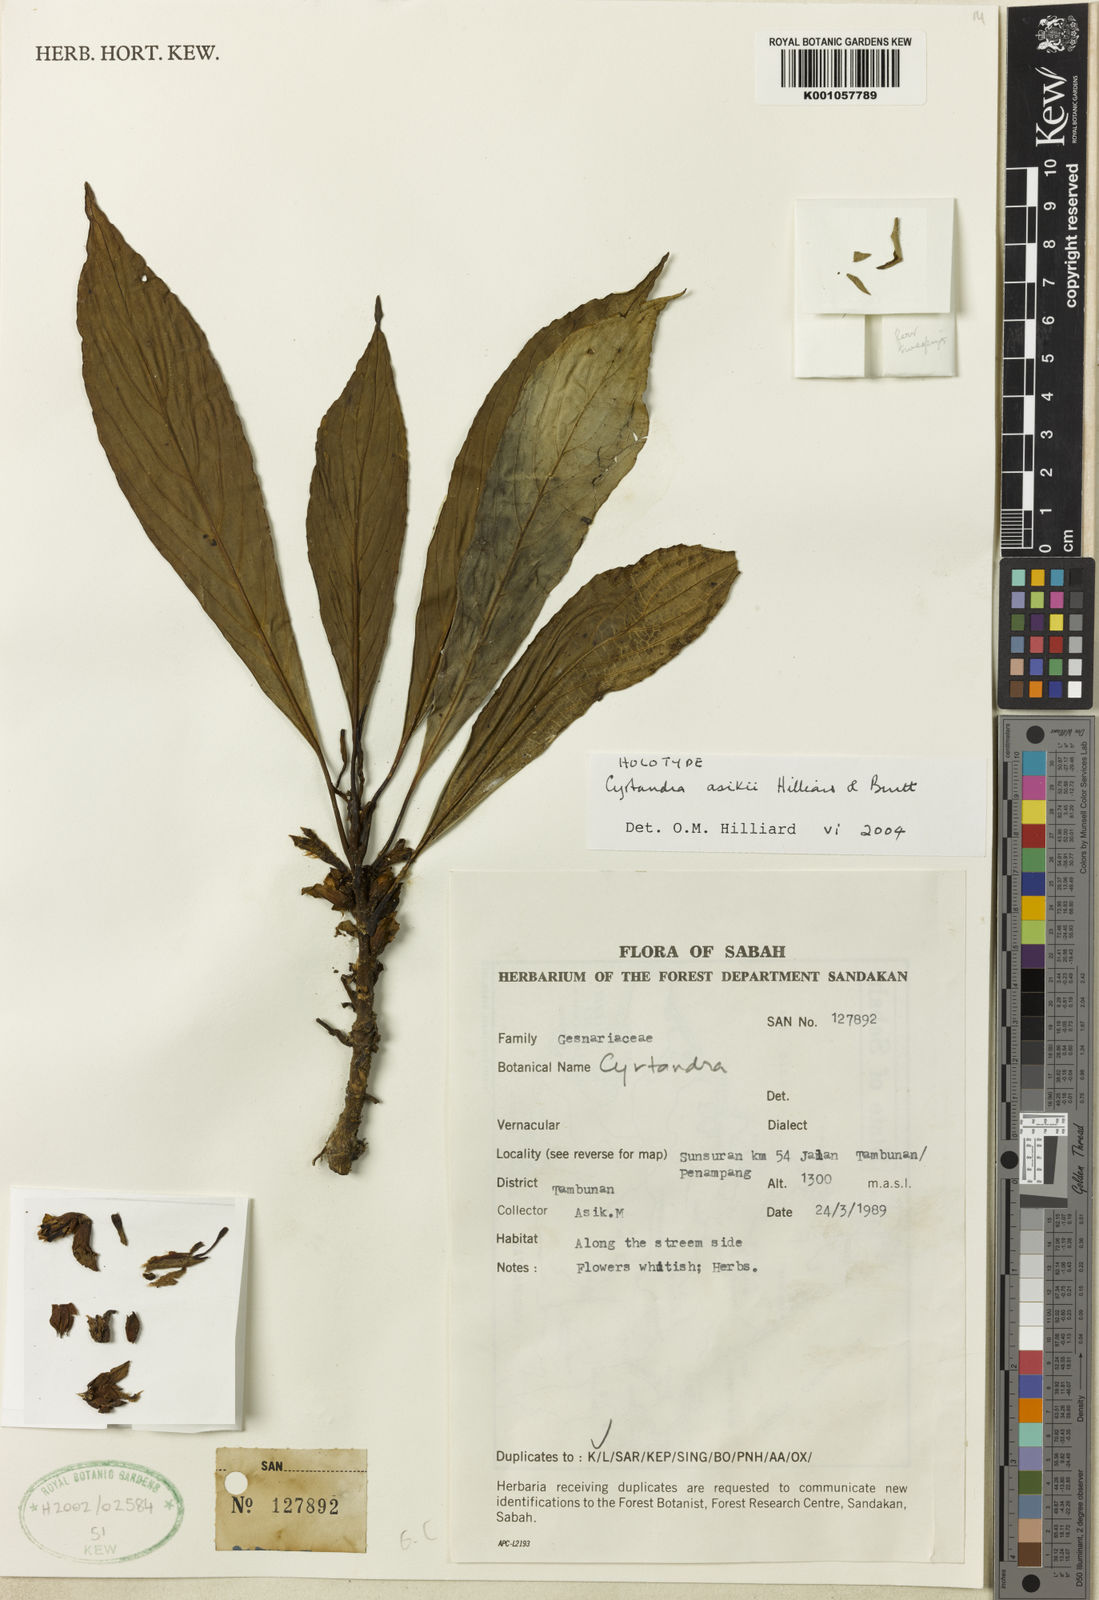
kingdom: Plantae
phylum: Tracheophyta
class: Magnoliopsida
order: Lamiales
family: Gesneriaceae
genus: Cyrtandra
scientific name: Cyrtandra asikii
